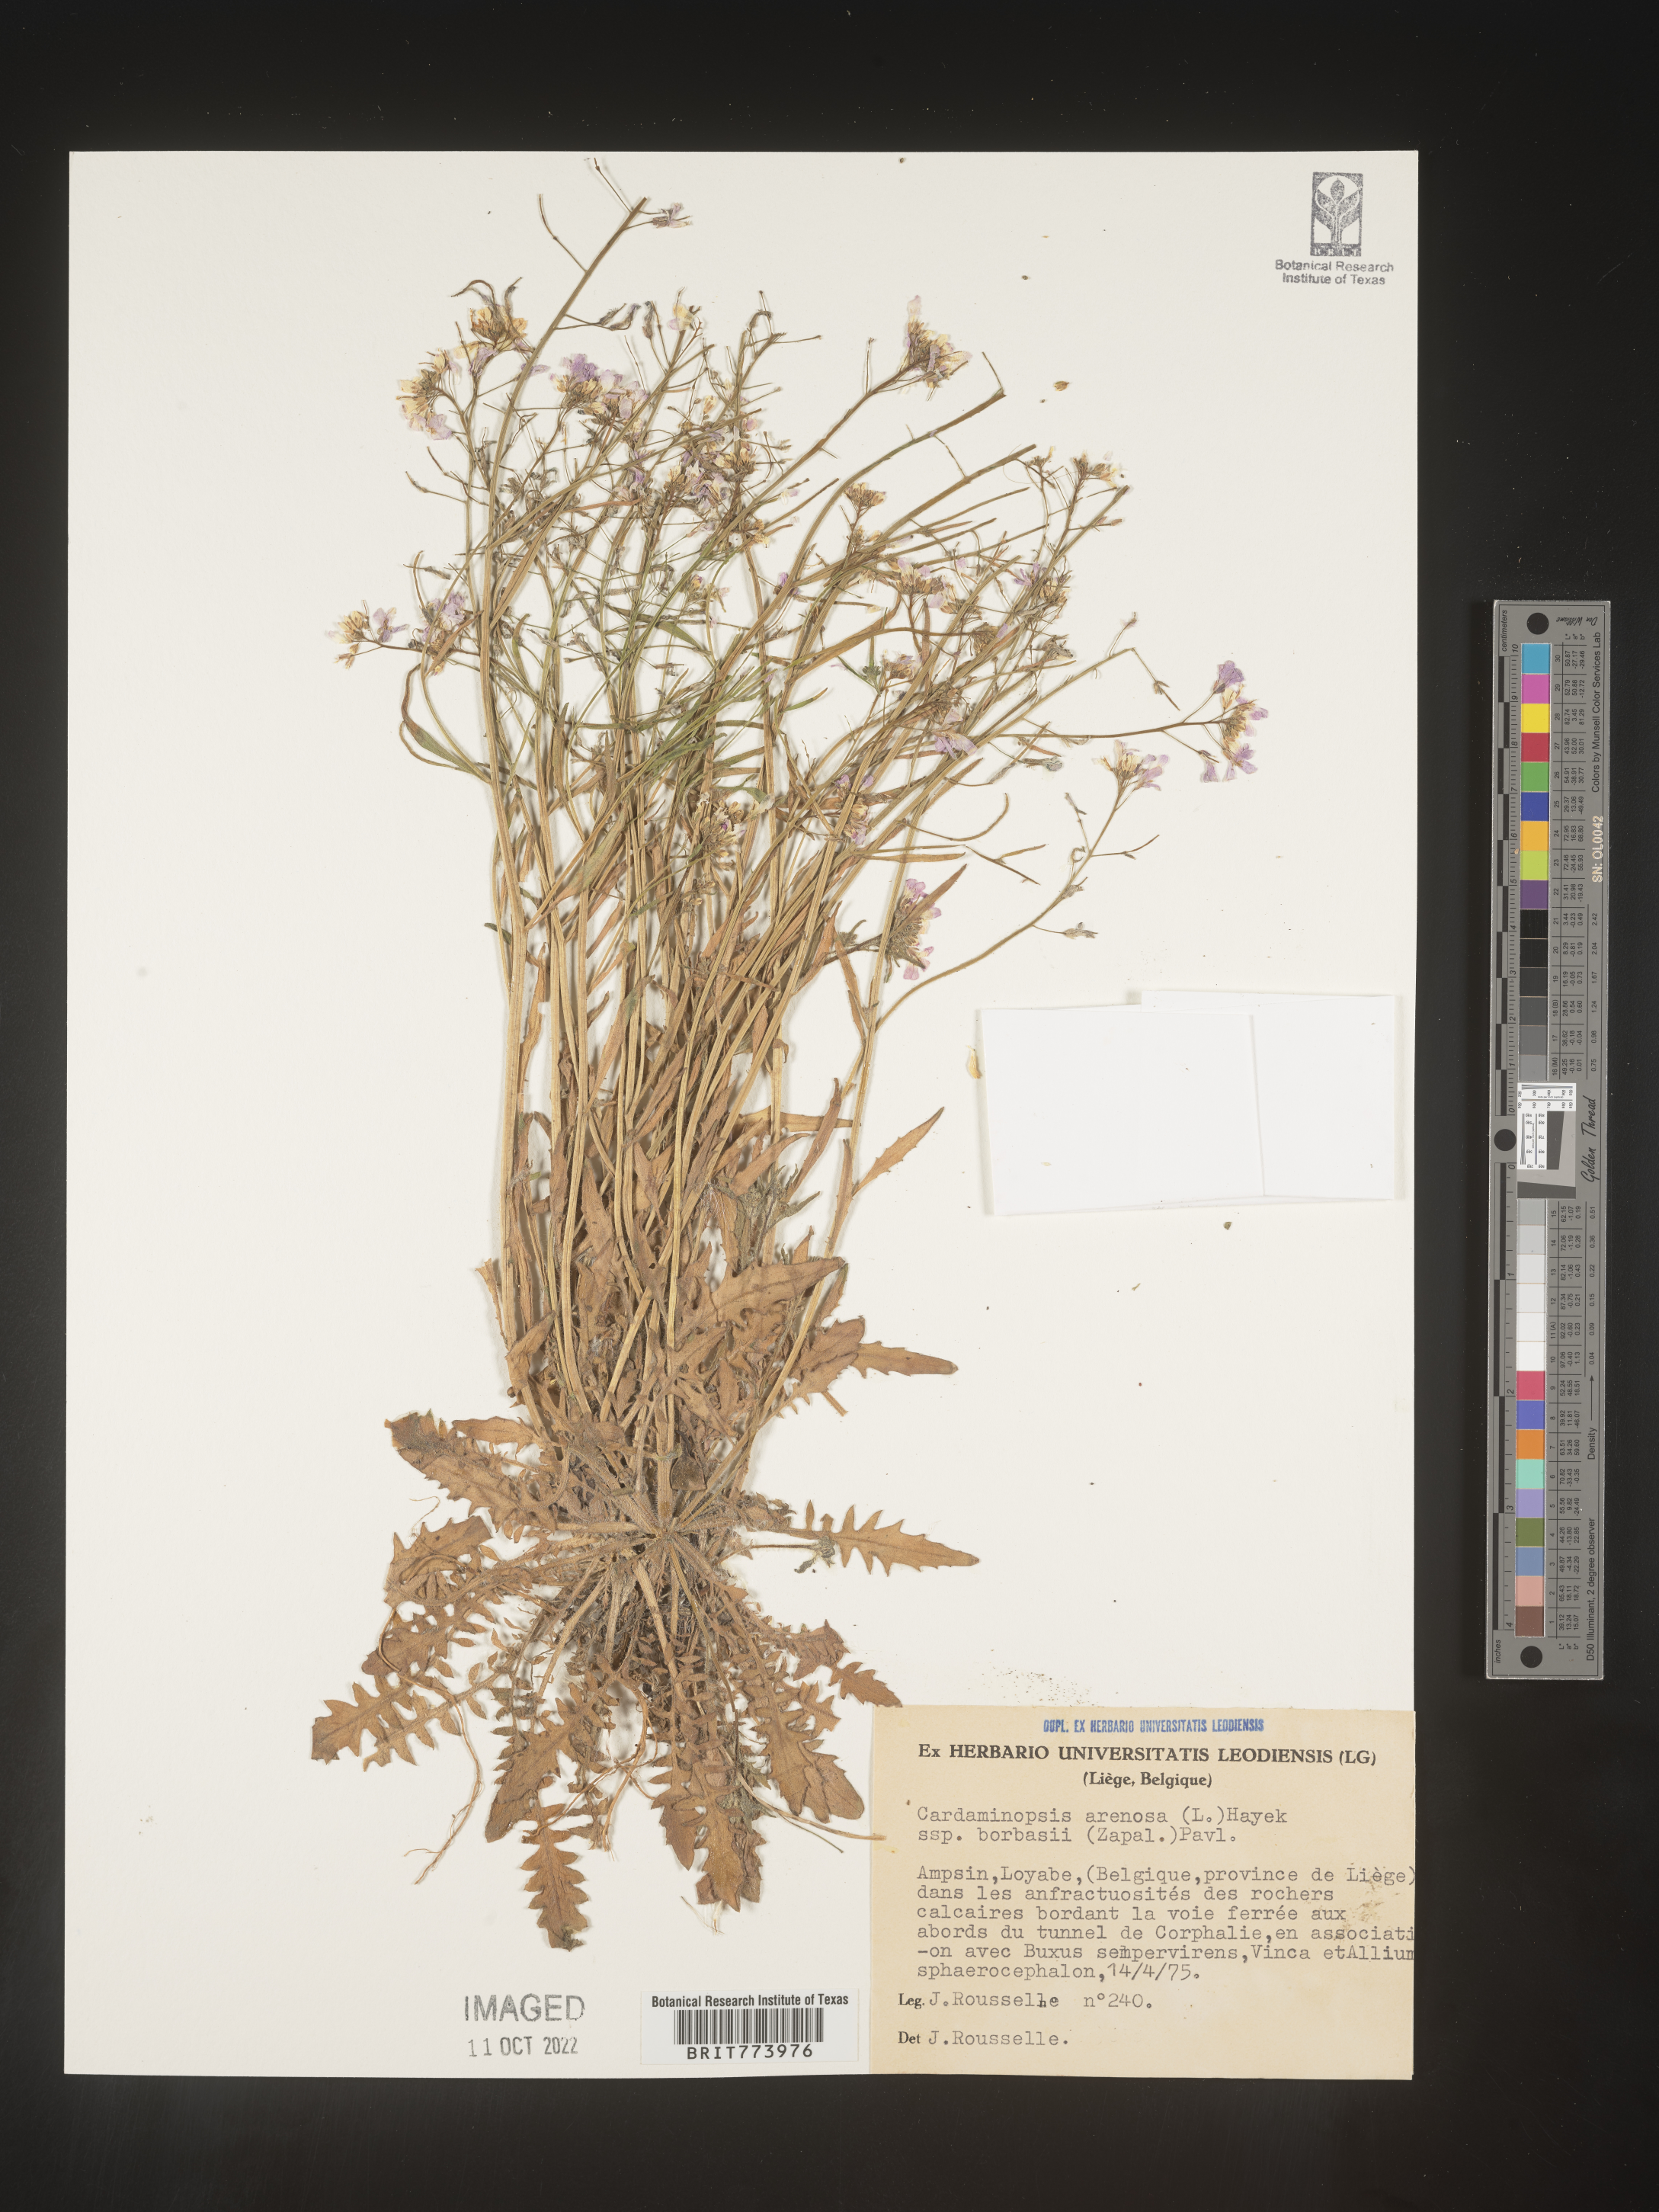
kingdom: Plantae
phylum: Tracheophyta
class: Magnoliopsida
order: Brassicales
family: Brassicaceae
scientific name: Brassicaceae
